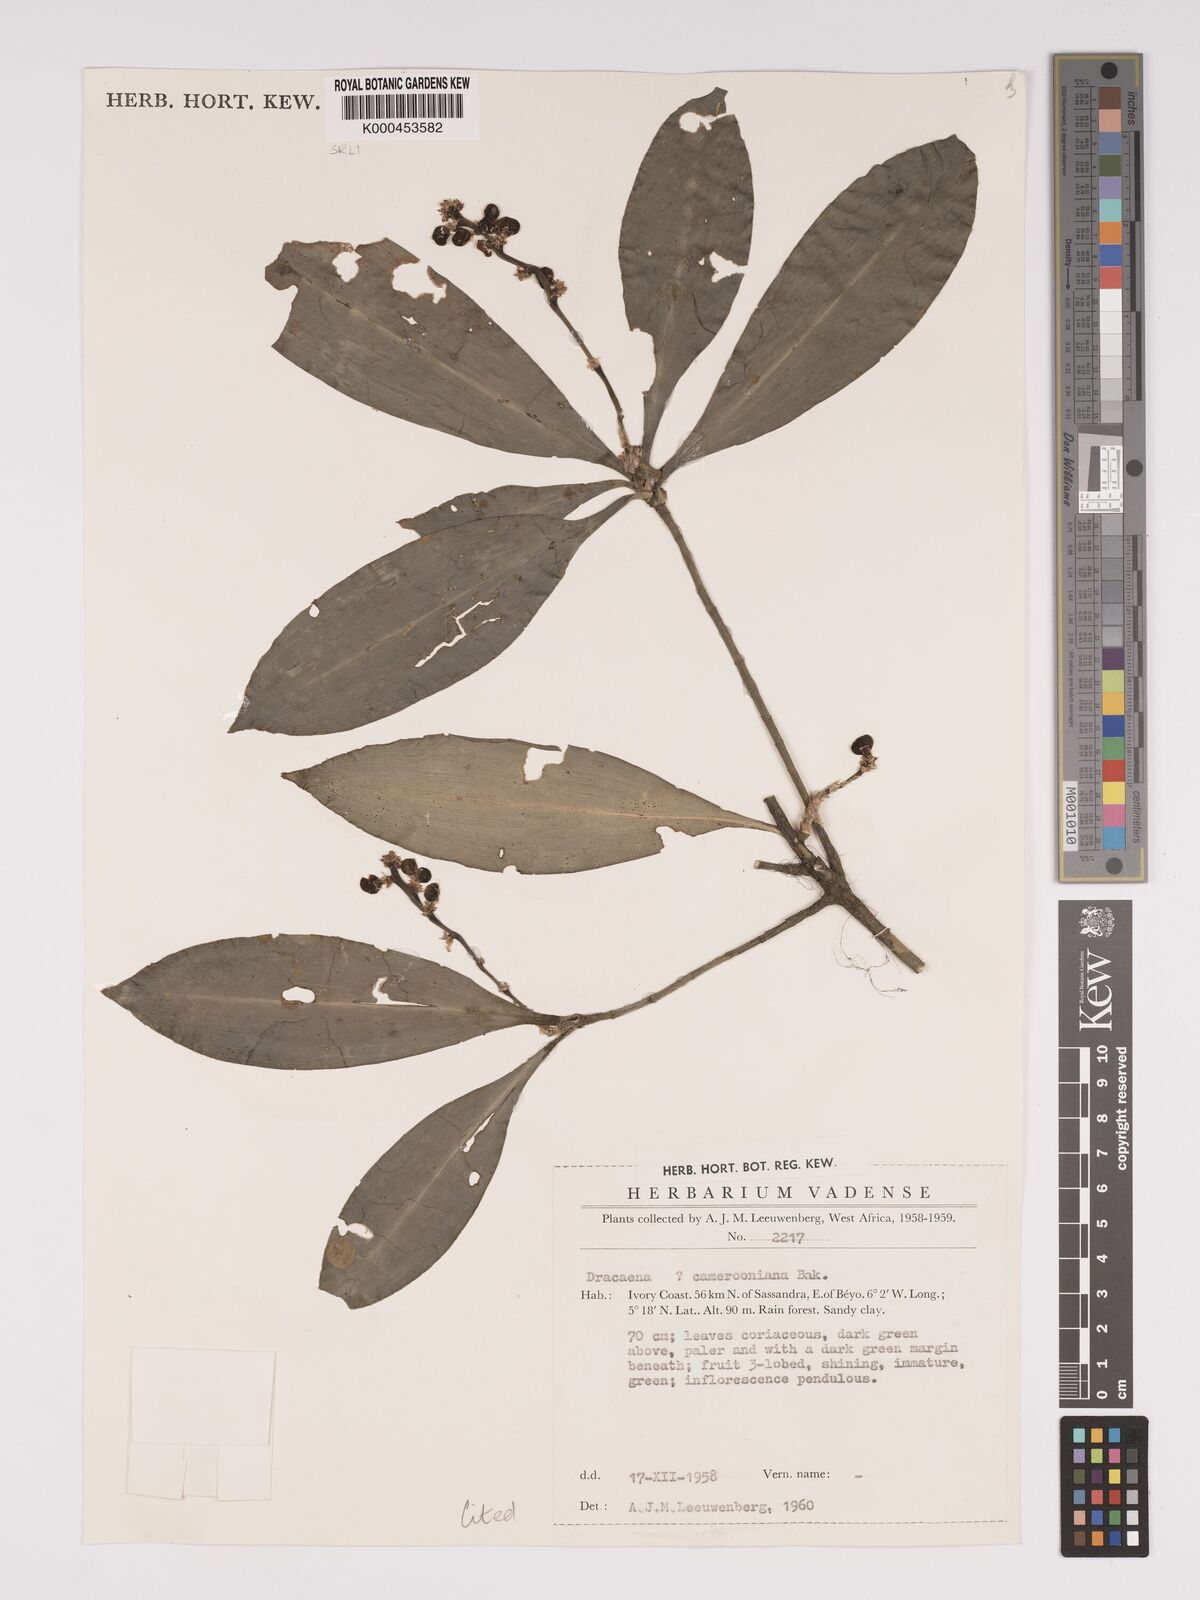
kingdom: Plantae
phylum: Tracheophyta
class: Liliopsida
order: Asparagales
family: Asparagaceae
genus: Dracaena
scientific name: Dracaena camerooniana
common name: Dragon tree
